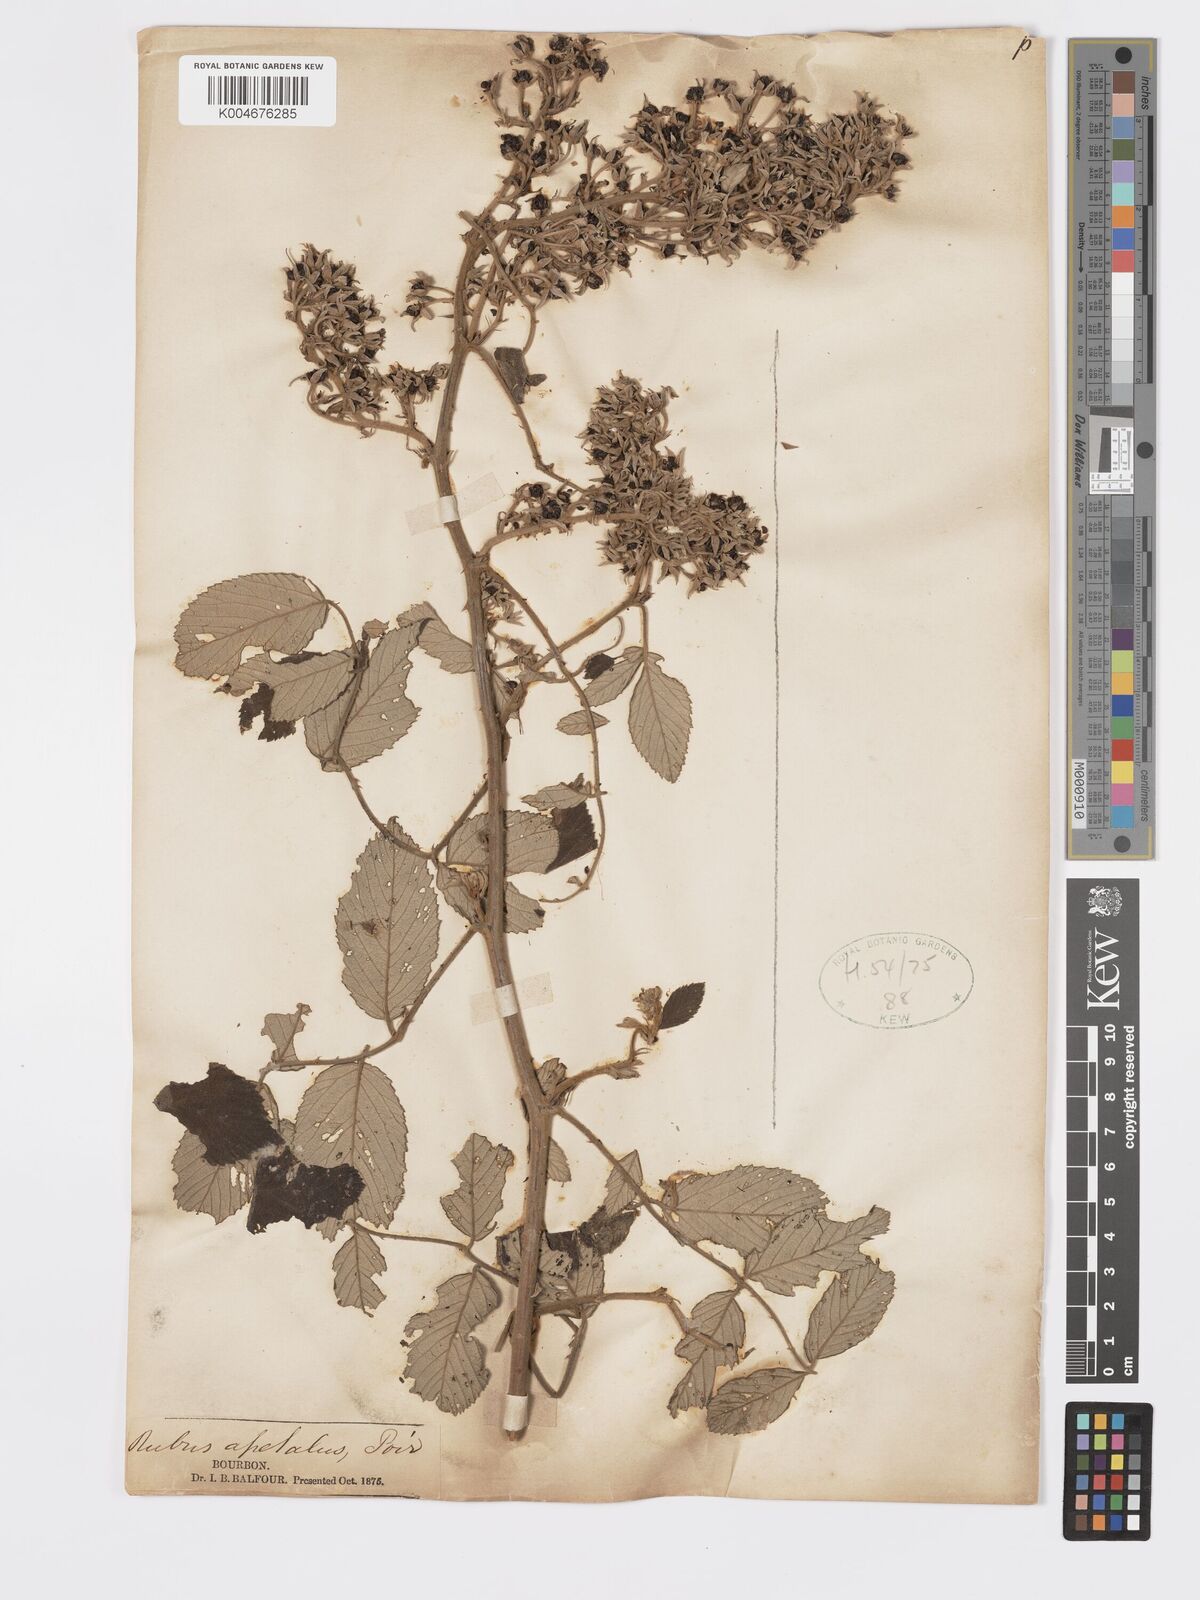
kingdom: Plantae
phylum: Tracheophyta
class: Magnoliopsida
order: Rosales
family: Rosaceae
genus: Rubus
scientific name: Rubus apetalus
